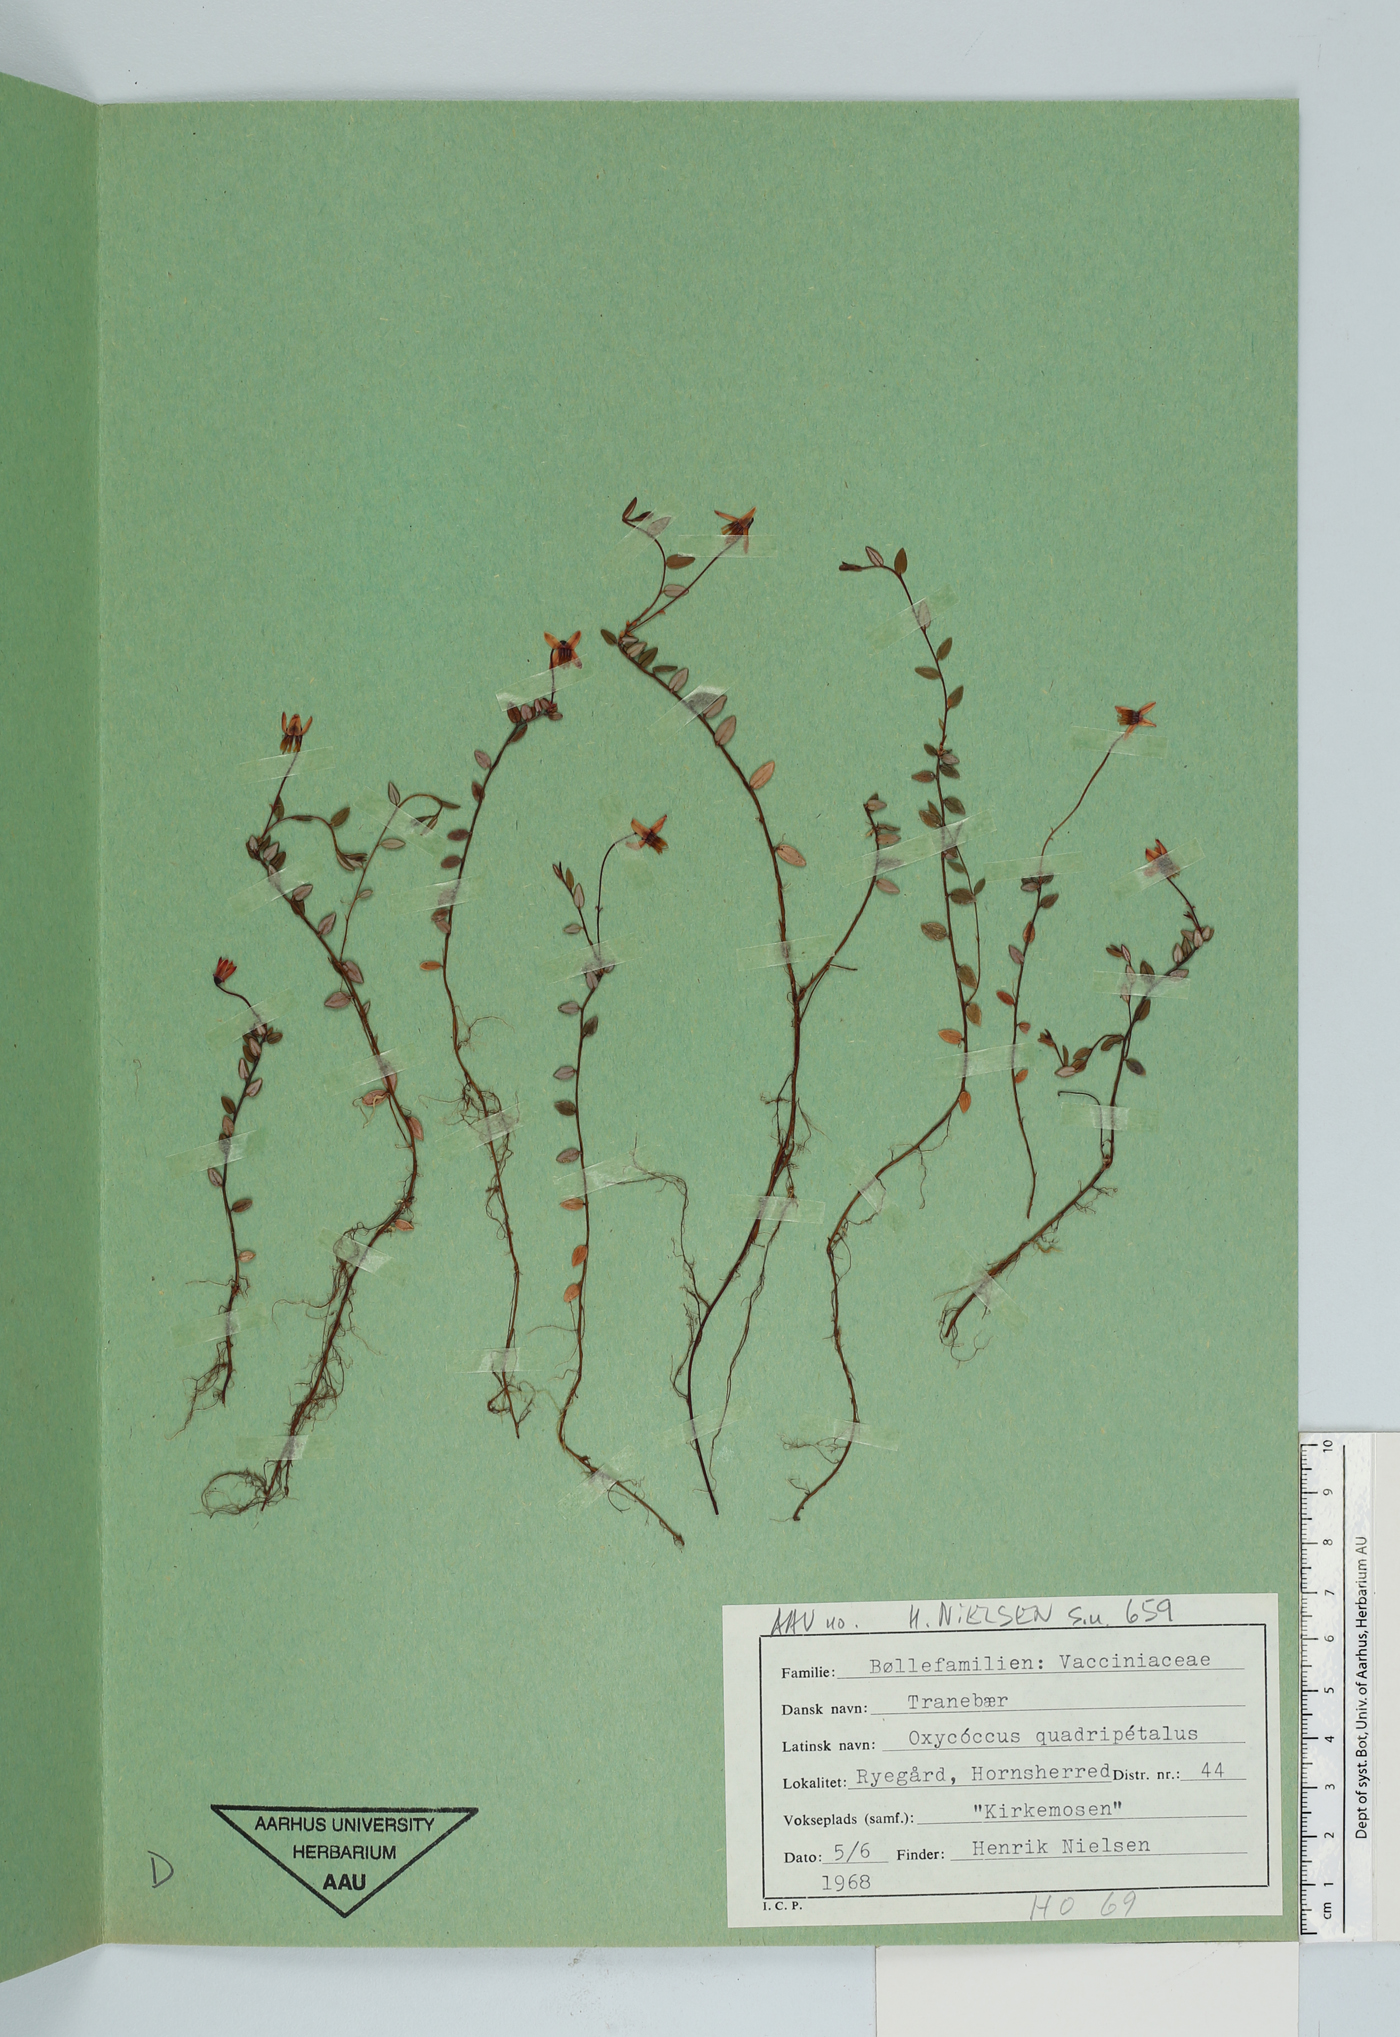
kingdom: Plantae
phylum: Tracheophyta
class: Magnoliopsida
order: Ericales
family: Ericaceae
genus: Vaccinium
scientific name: Vaccinium oxycoccos
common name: Cranberry
